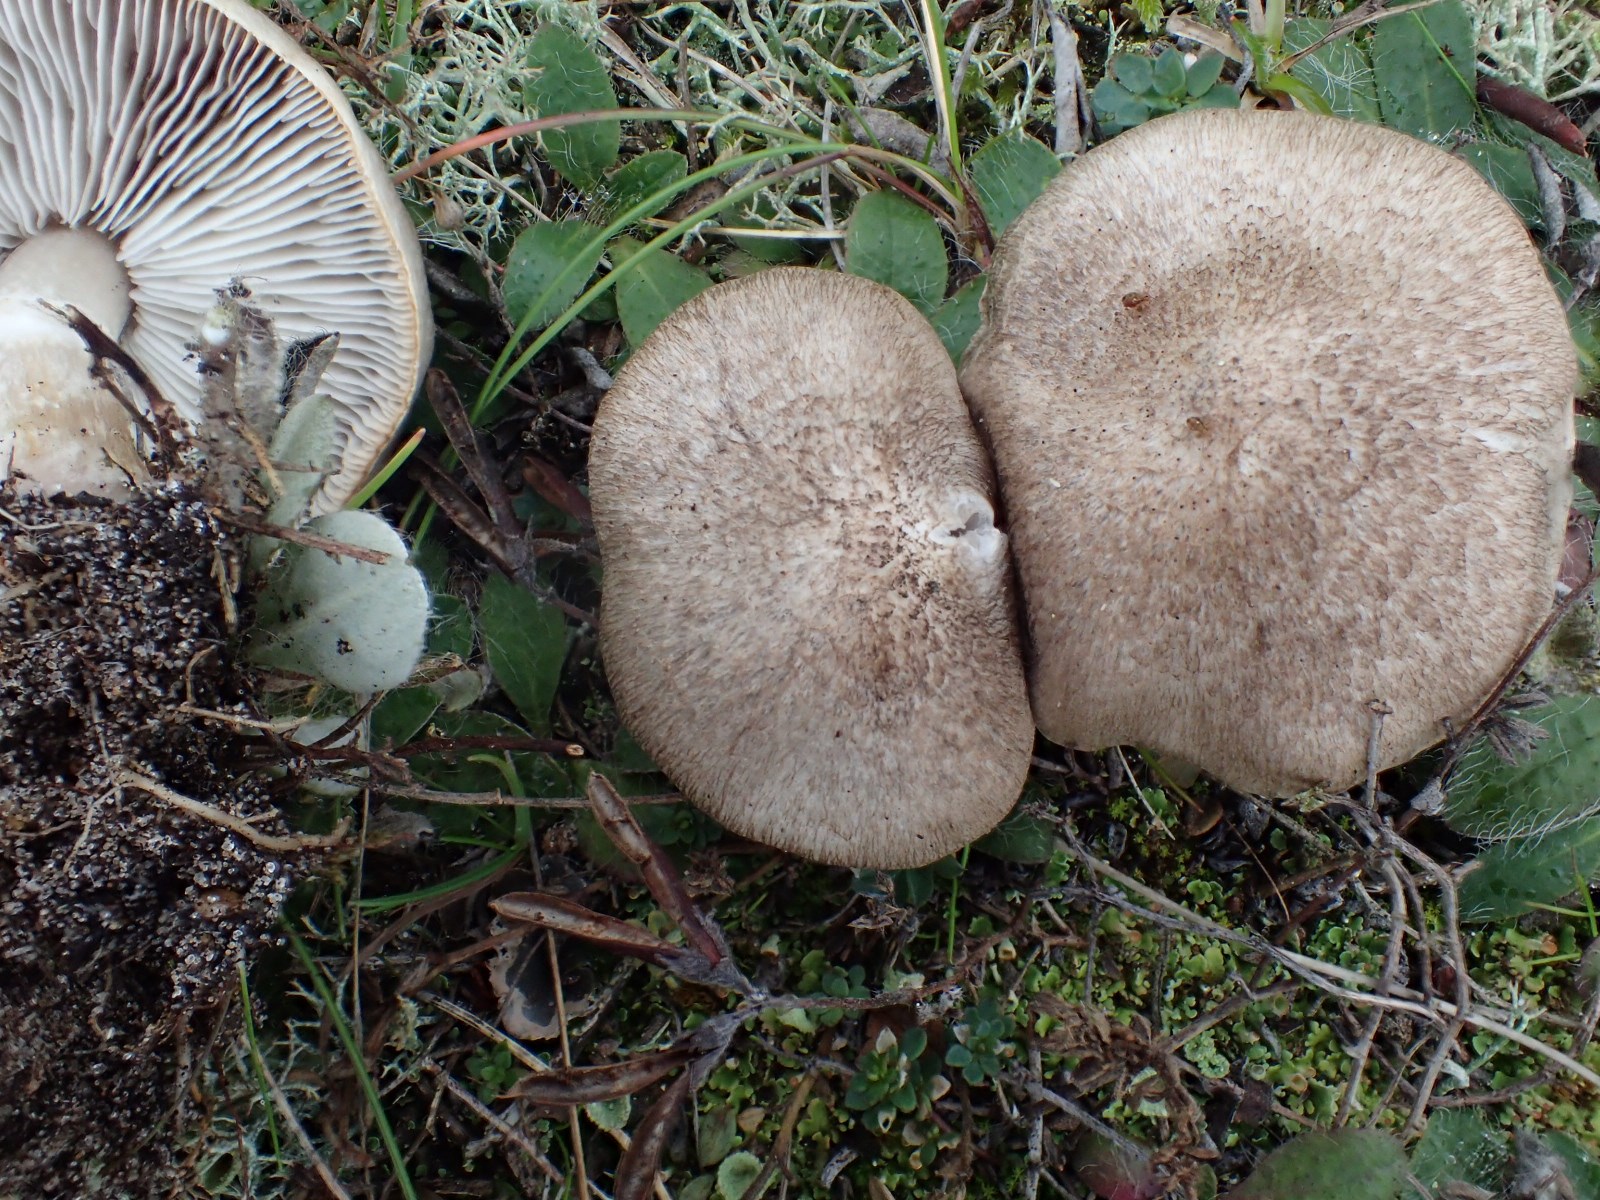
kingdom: Fungi
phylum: Basidiomycota
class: Agaricomycetes
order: Agaricales
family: Tricholomataceae
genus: Tricholoma
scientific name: Tricholoma cingulatum
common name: ring-ridderhat
